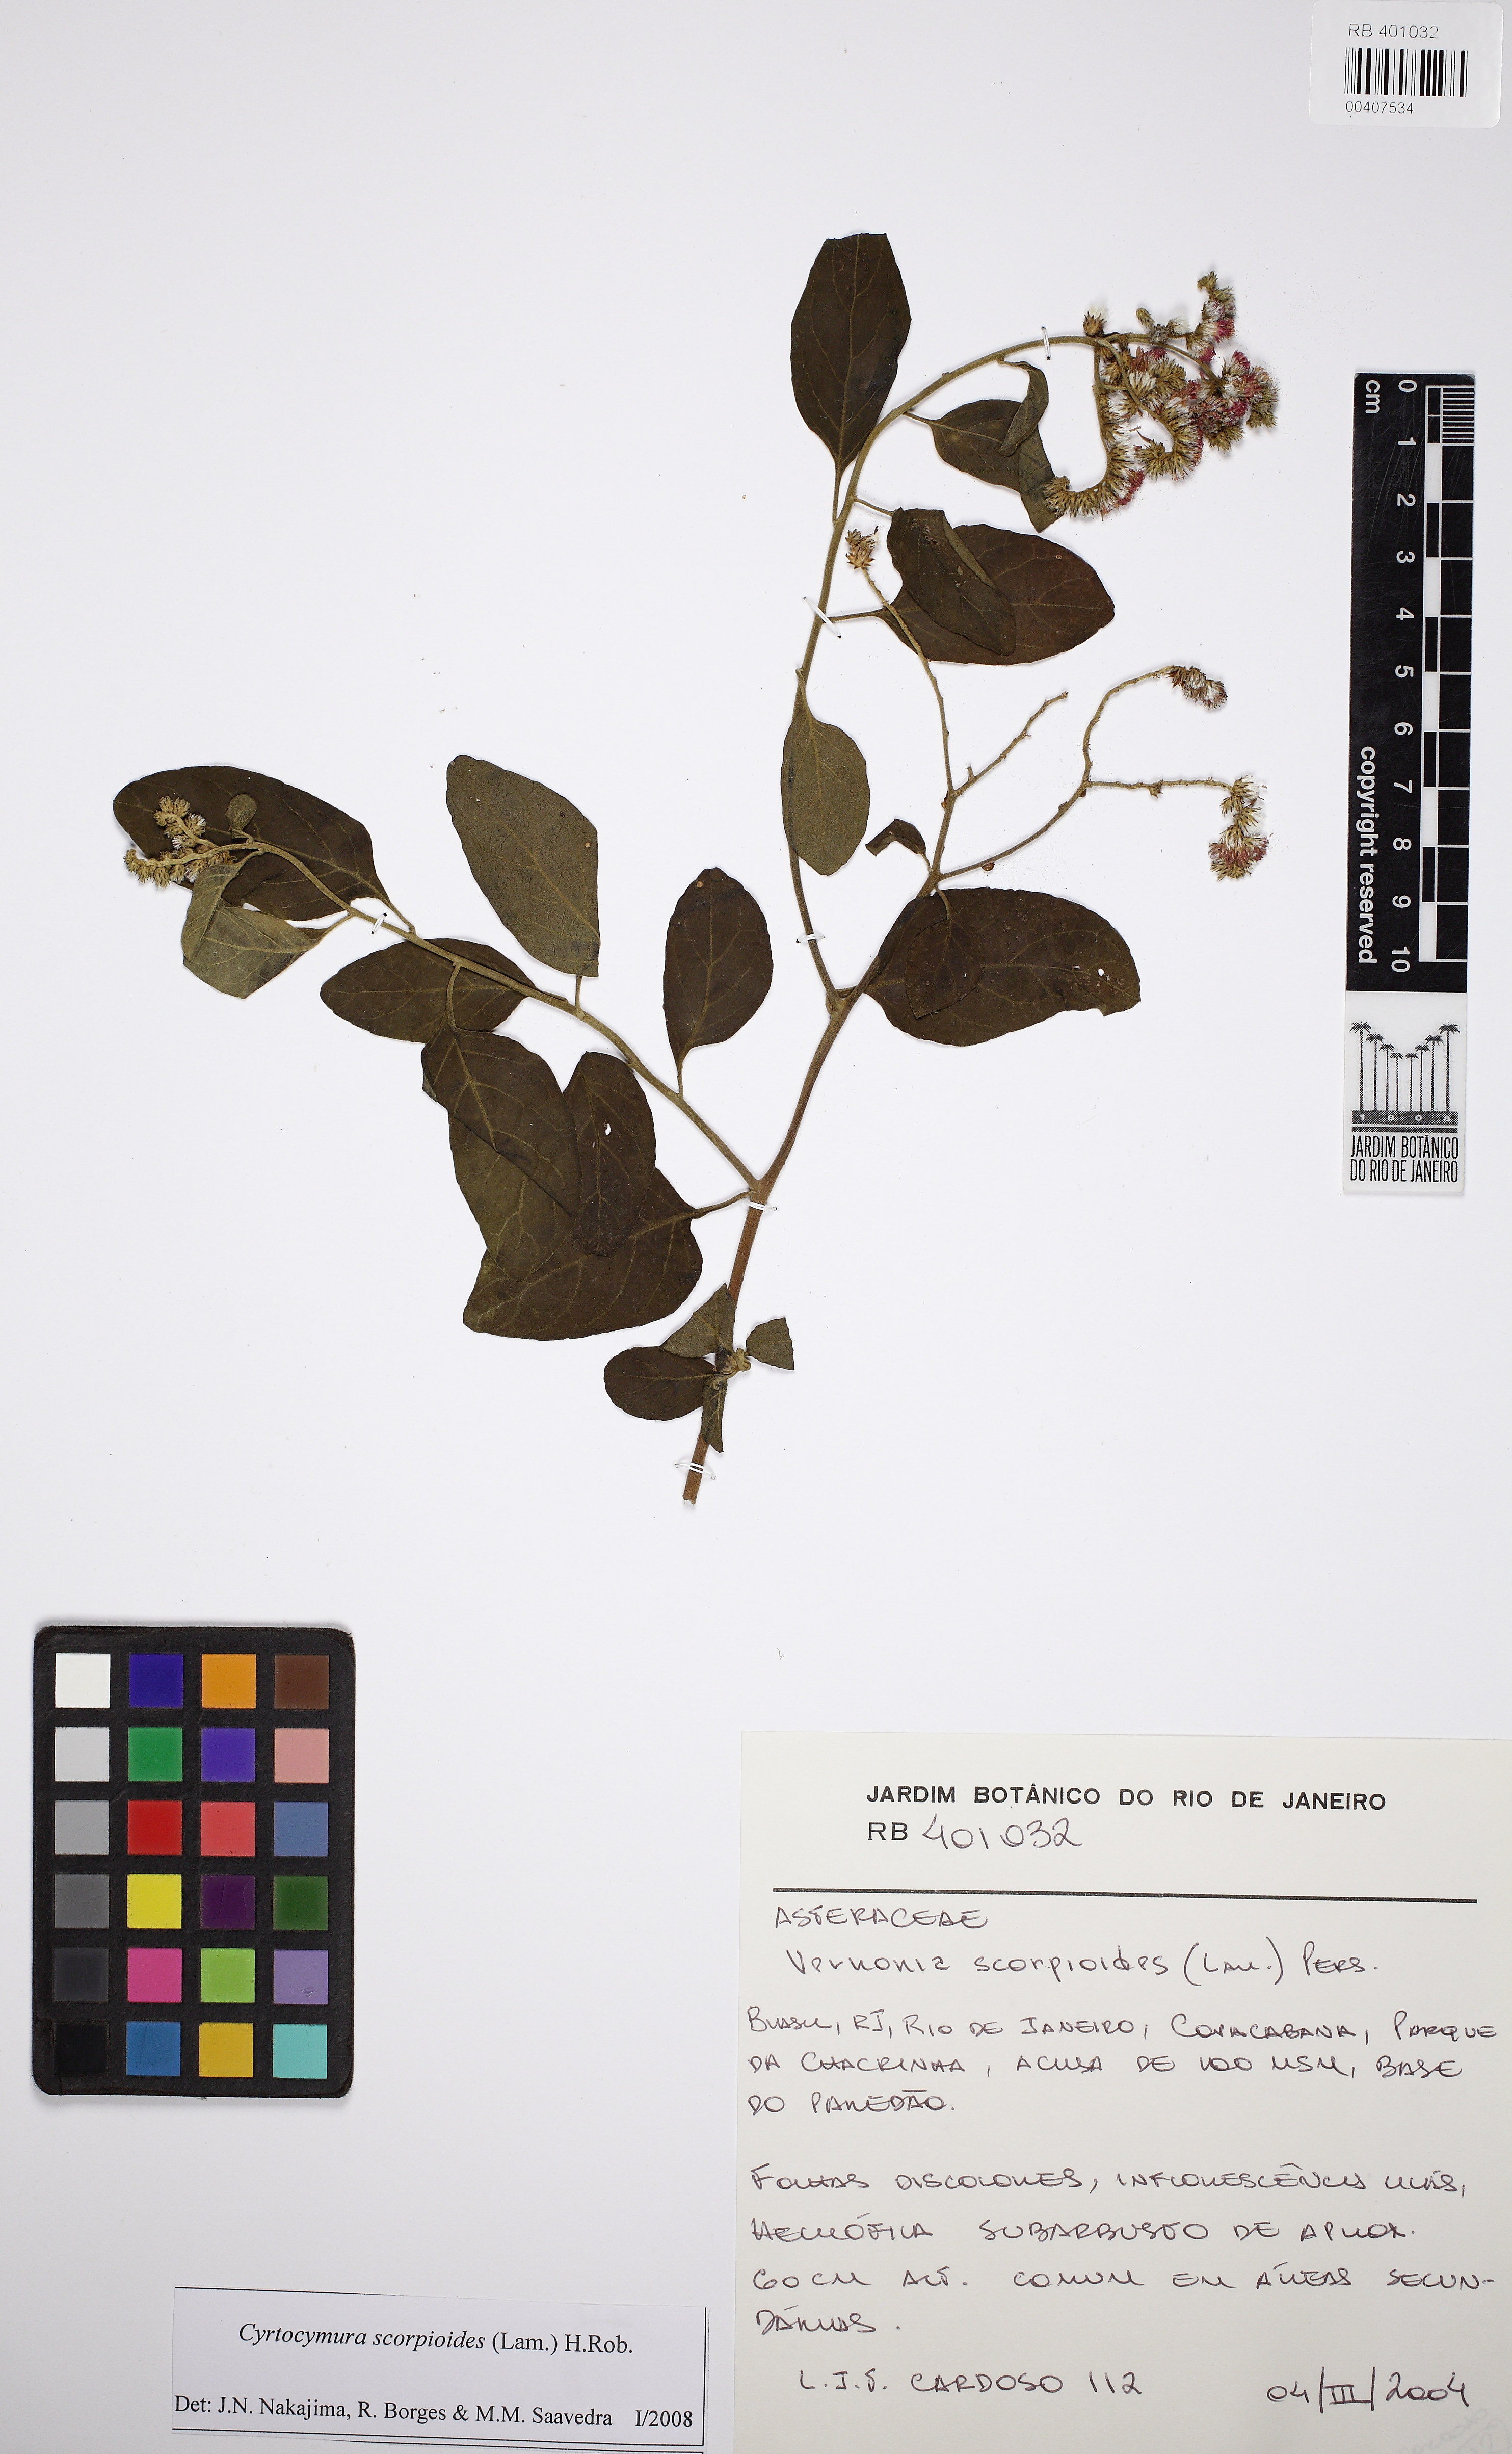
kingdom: Plantae
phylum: Tracheophyta
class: Magnoliopsida
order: Asterales
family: Asteraceae
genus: Cyrtocymura
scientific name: Cyrtocymura scorpioides
